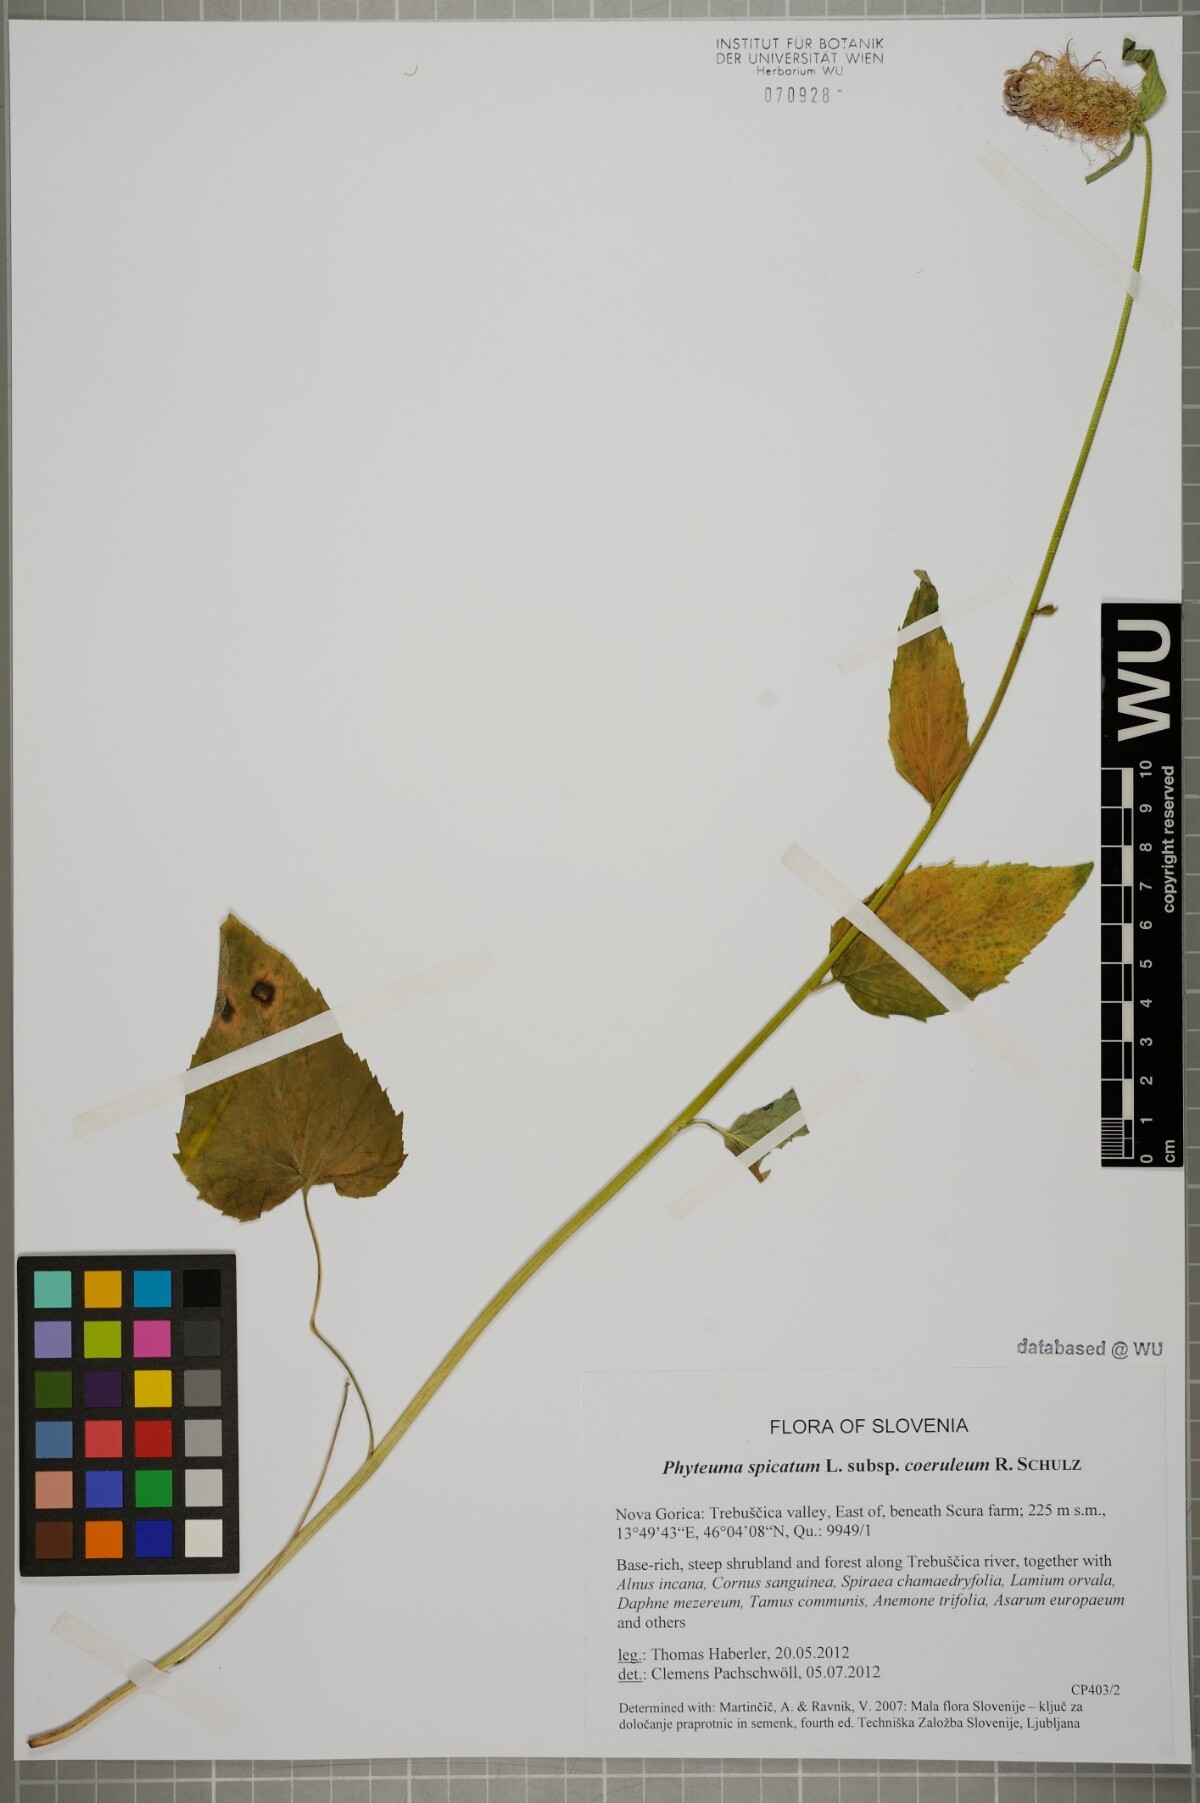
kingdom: Plantae
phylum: Tracheophyta
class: Magnoliopsida
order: Asterales
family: Campanulaceae
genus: Phyteuma
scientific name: Phyteuma spicatum
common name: Spiked rampion
